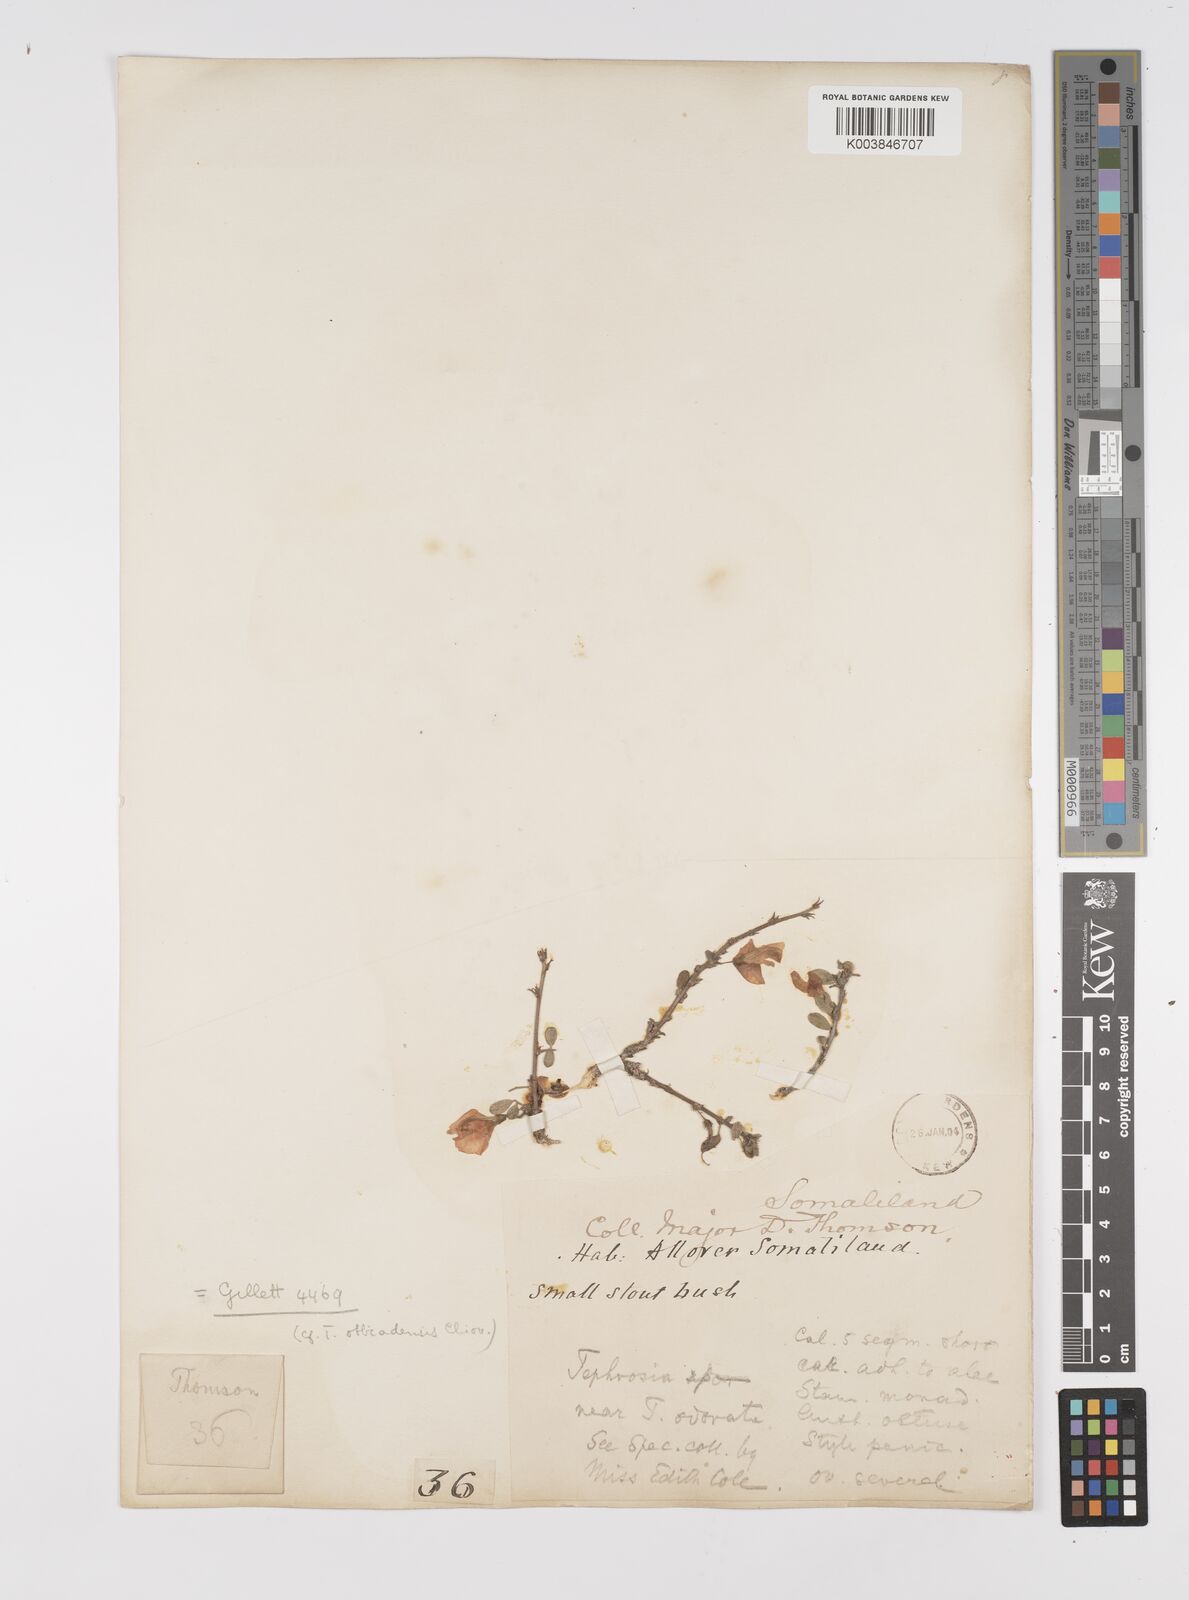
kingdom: Plantae
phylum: Tracheophyta
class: Magnoliopsida
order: Fabales
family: Fabaceae
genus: Tephrosia
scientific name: Tephrosia obbiadensis
